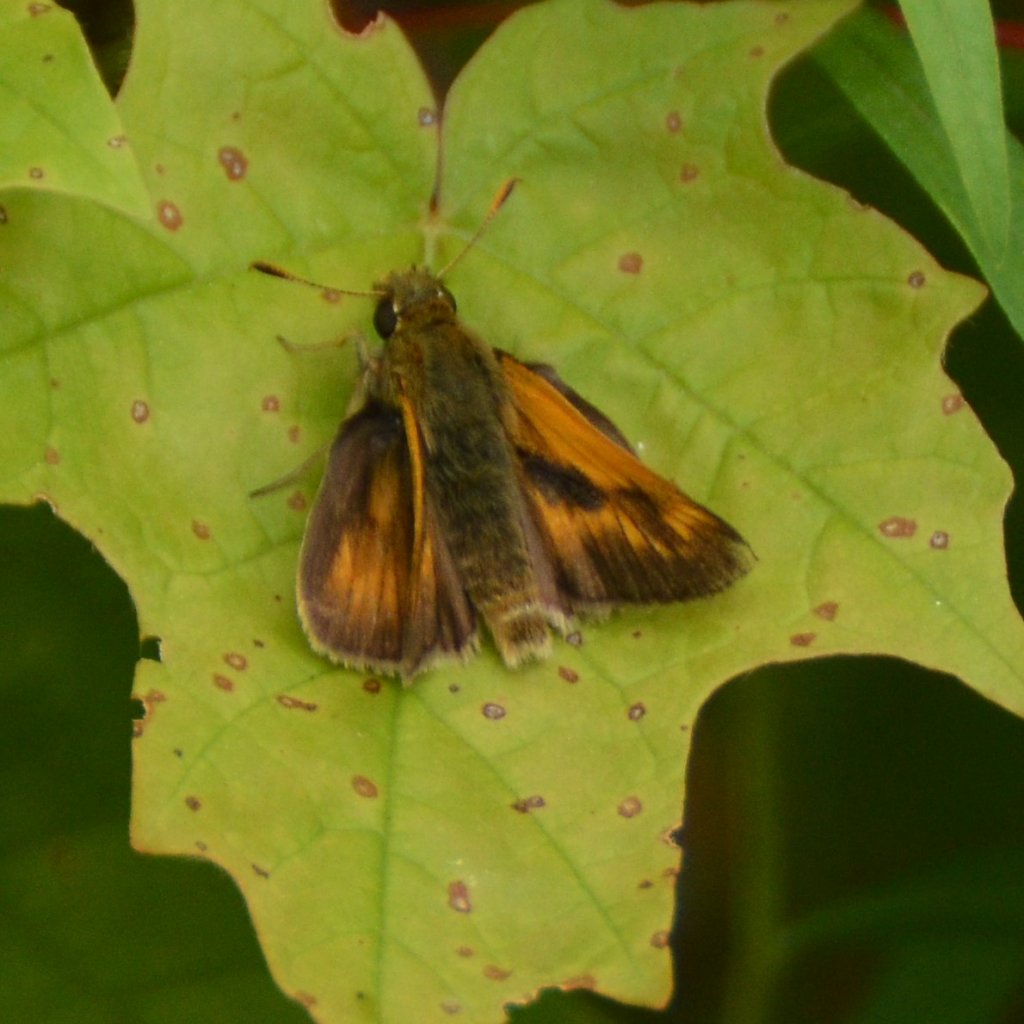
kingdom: Animalia
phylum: Arthropoda
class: Insecta
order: Lepidoptera
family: Hesperiidae
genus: Polites
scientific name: Polites
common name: Long Dash Skipper
